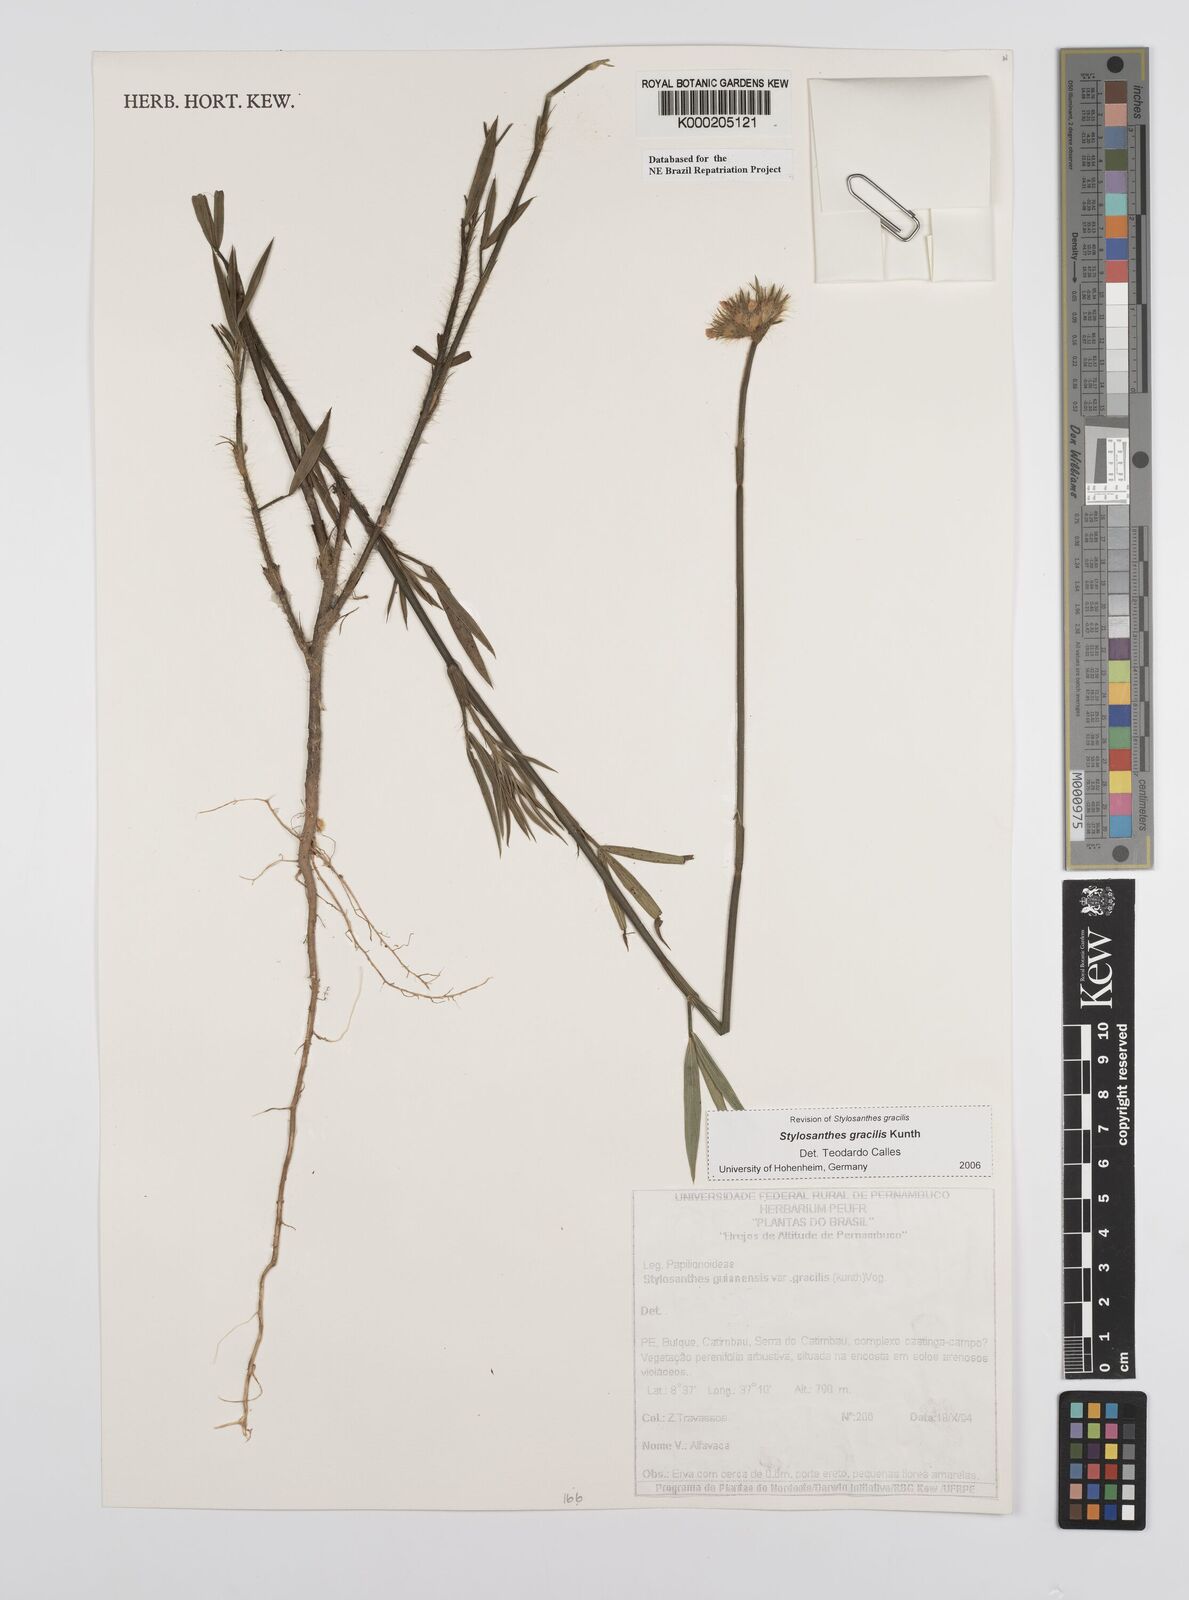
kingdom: Plantae
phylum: Tracheophyta
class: Magnoliopsida
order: Fabales
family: Fabaceae
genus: Stylosanthes
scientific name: Stylosanthes guianensis
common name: Pencil flower
